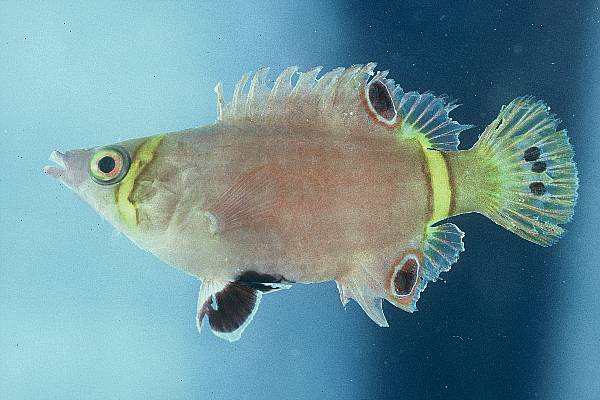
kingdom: Animalia
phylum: Chordata
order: Perciformes
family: Labridae
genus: Wetmorella
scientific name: Wetmorella nigropinnata
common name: Sharpnose wrasse
